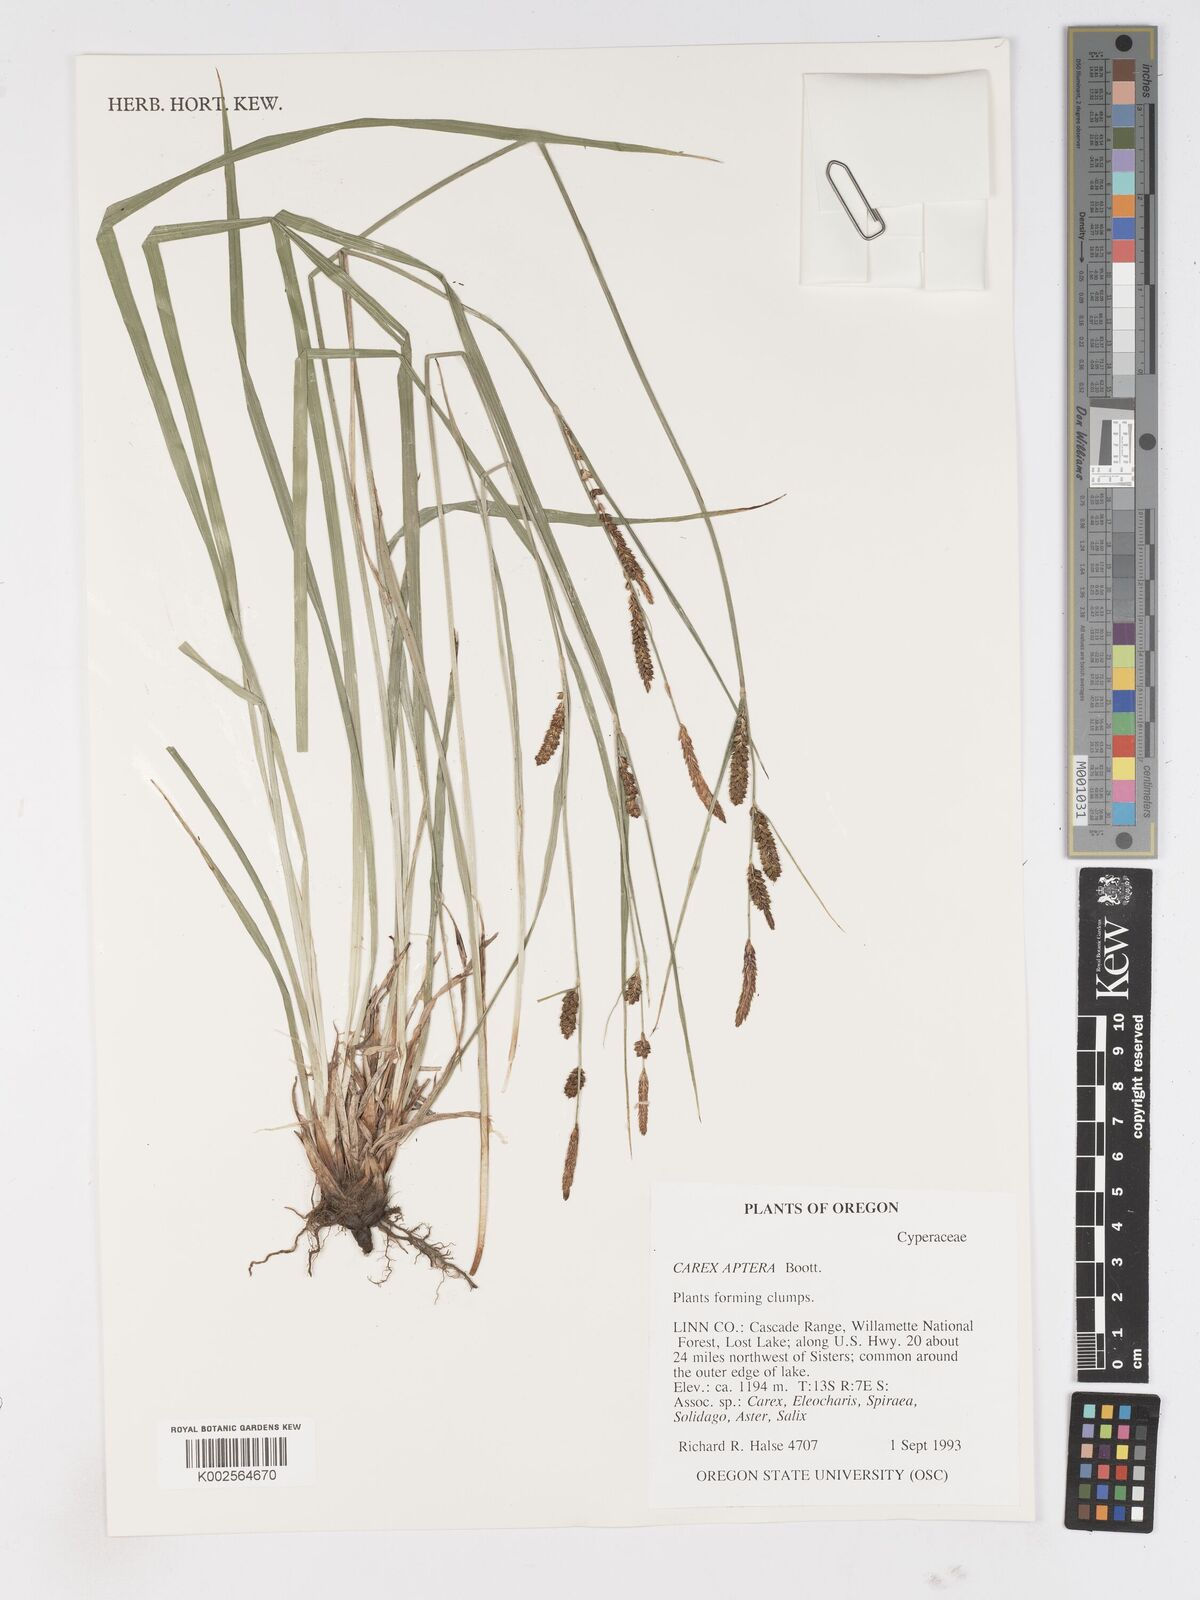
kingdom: Plantae
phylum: Tracheophyta
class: Liliopsida
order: Poales
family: Cyperaceae
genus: Carex
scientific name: Carex aperta
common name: Columbia sedge
